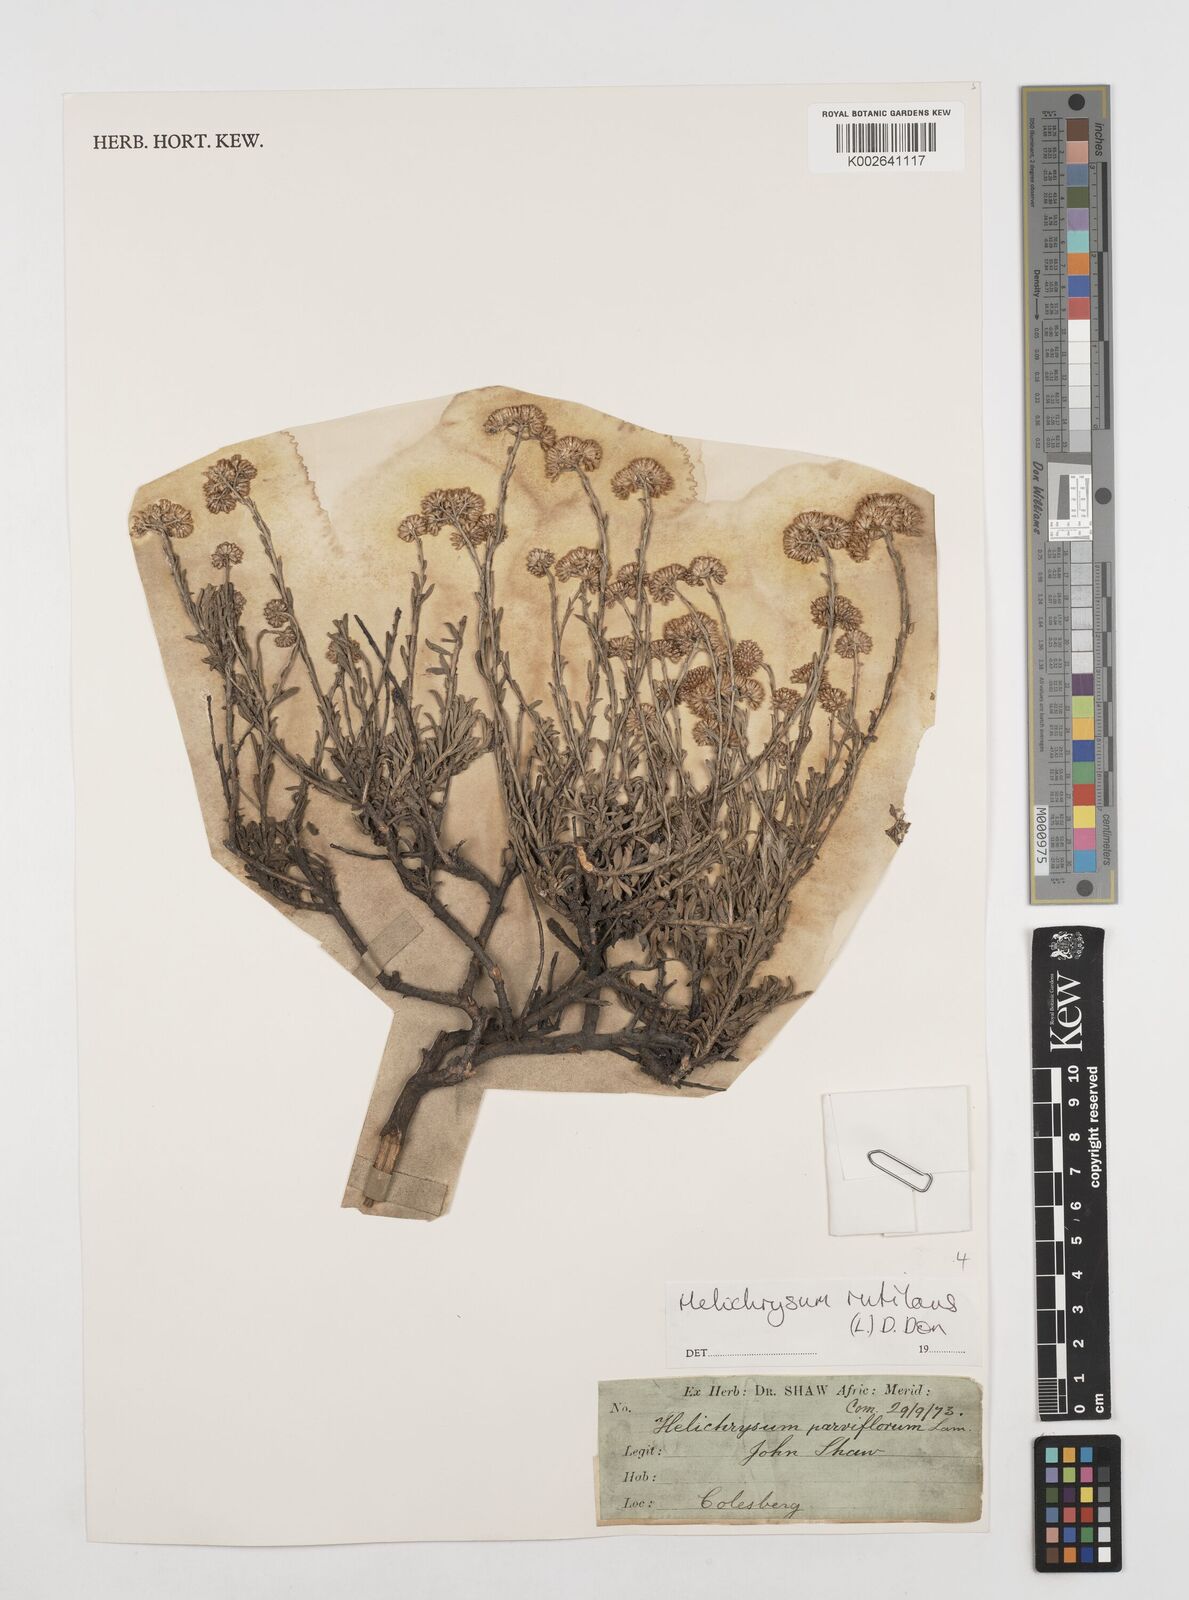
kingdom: Plantae
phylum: Tracheophyta
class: Magnoliopsida
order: Asterales
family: Asteraceae
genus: Helichrysum
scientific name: Helichrysum rutilans
